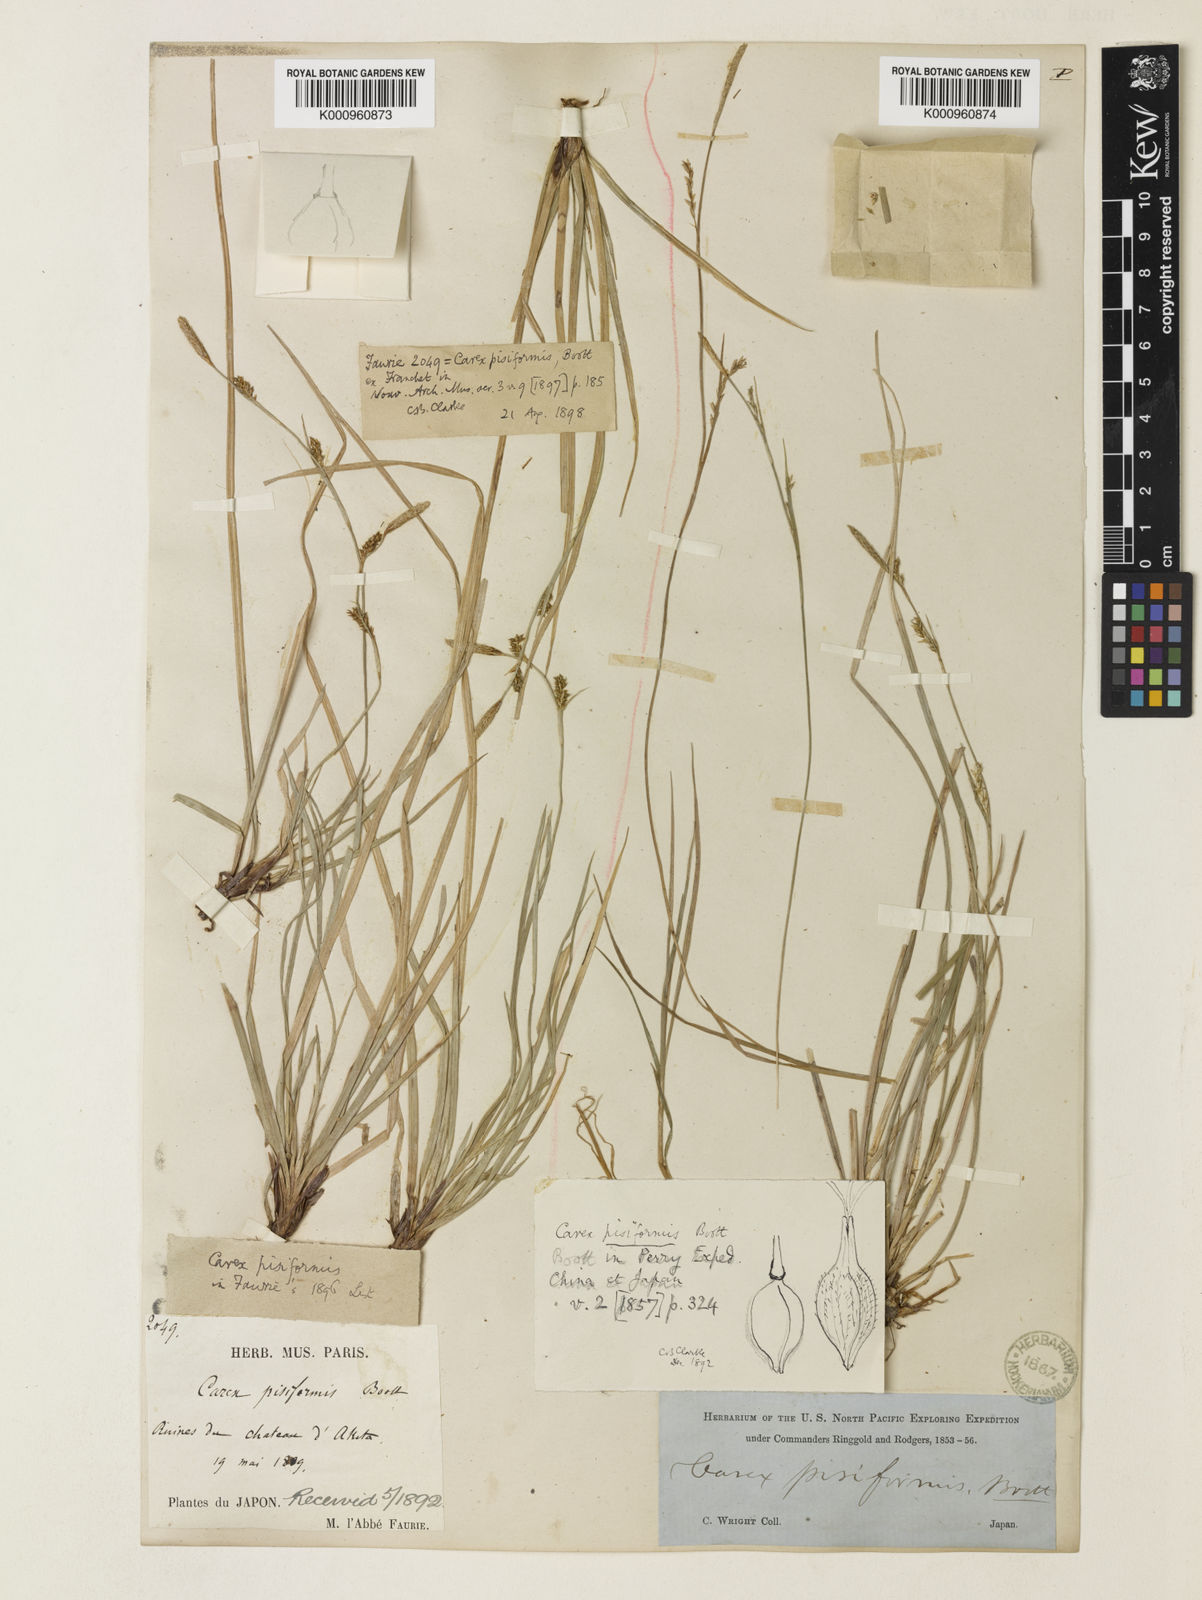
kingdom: Plantae
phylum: Tracheophyta
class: Liliopsida
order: Poales
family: Cyperaceae
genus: Carex
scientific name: Carex pisiformis
